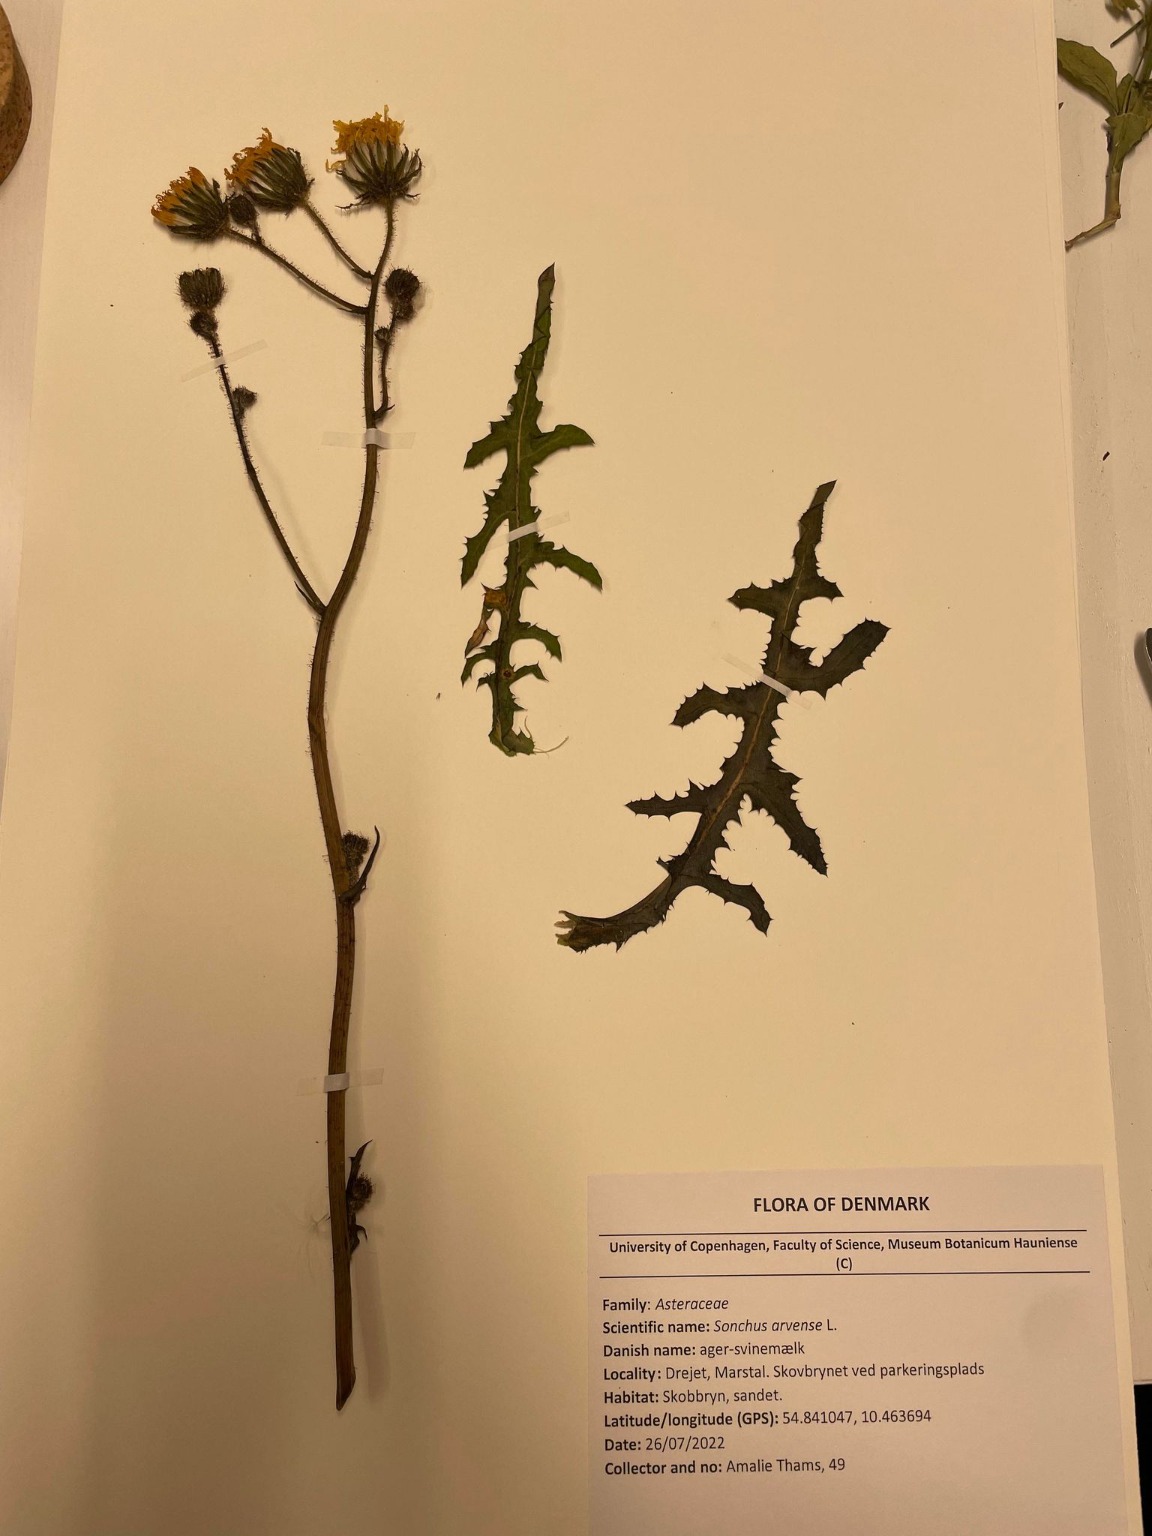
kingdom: Plantae
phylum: Tracheophyta
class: Magnoliopsida
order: Asterales
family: Asteraceae
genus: Sonchus
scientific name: Sonchus arvensis
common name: Ager-svinemælk
